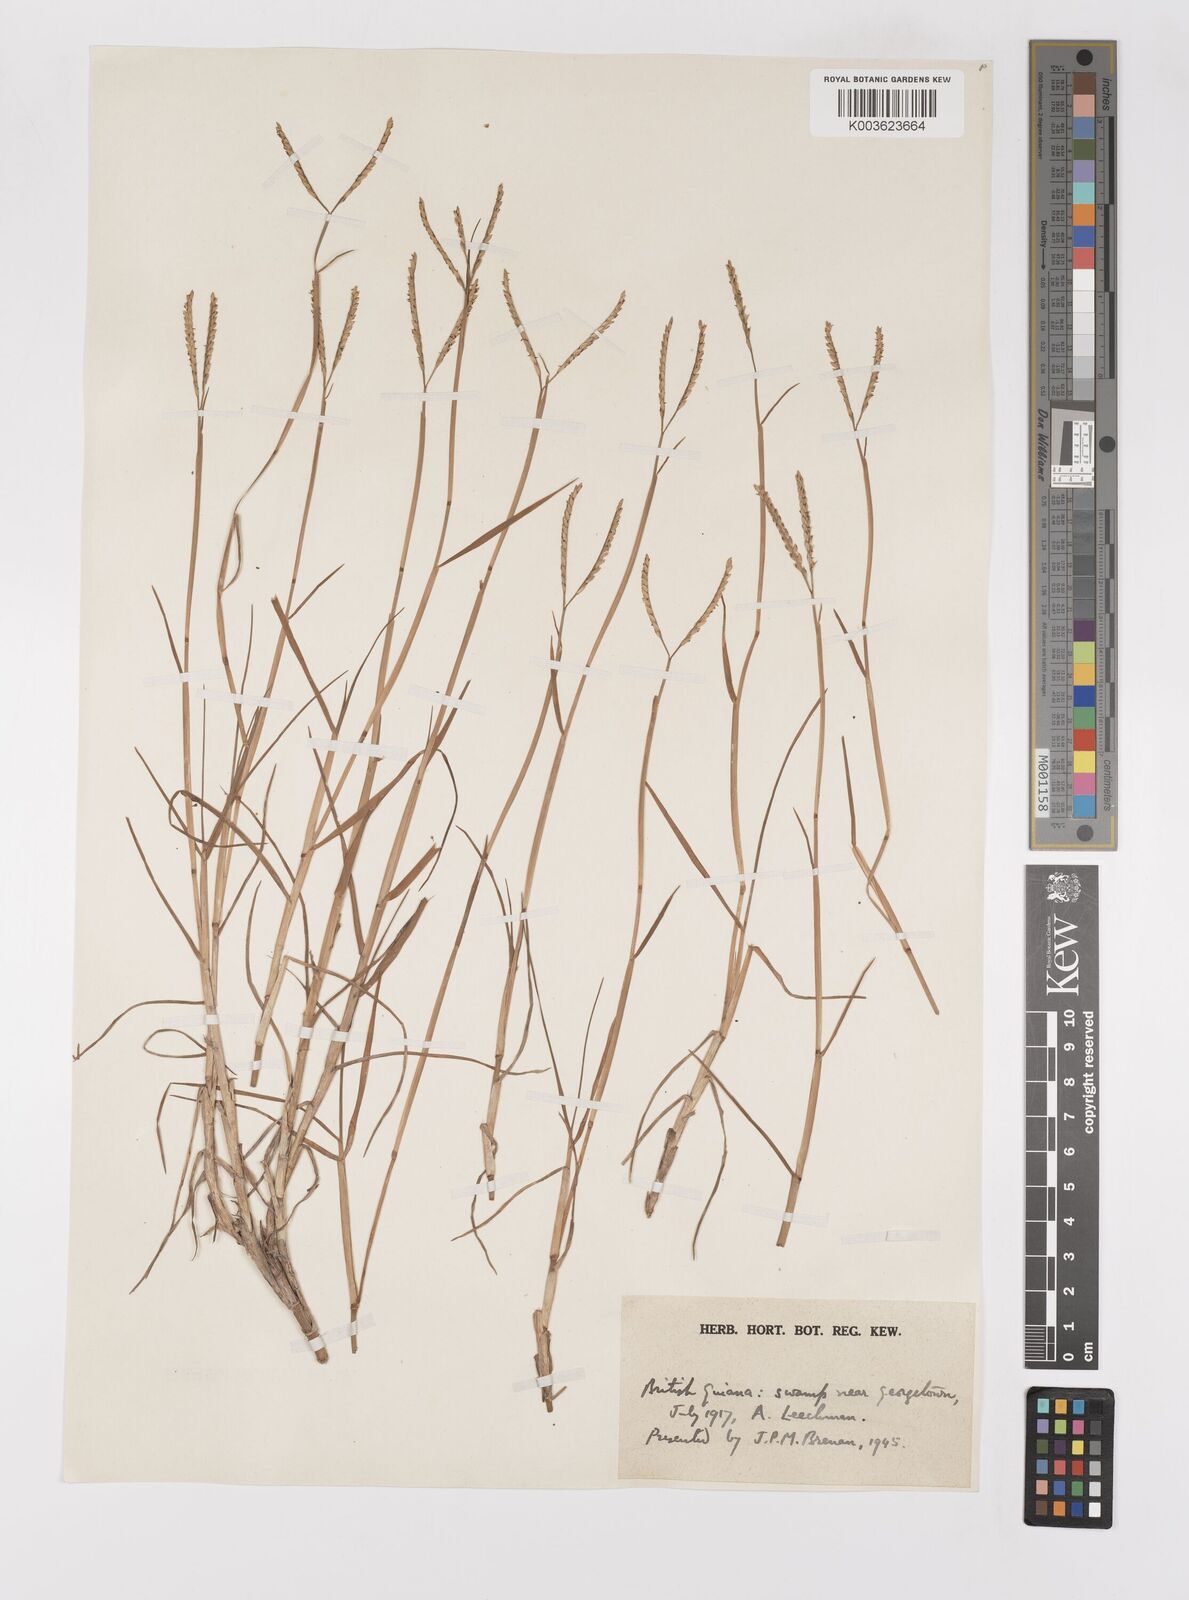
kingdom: Plantae
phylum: Tracheophyta
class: Liliopsida
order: Poales
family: Poaceae
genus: Paspalum
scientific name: Paspalum vaginatum
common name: Seashore paspalum
